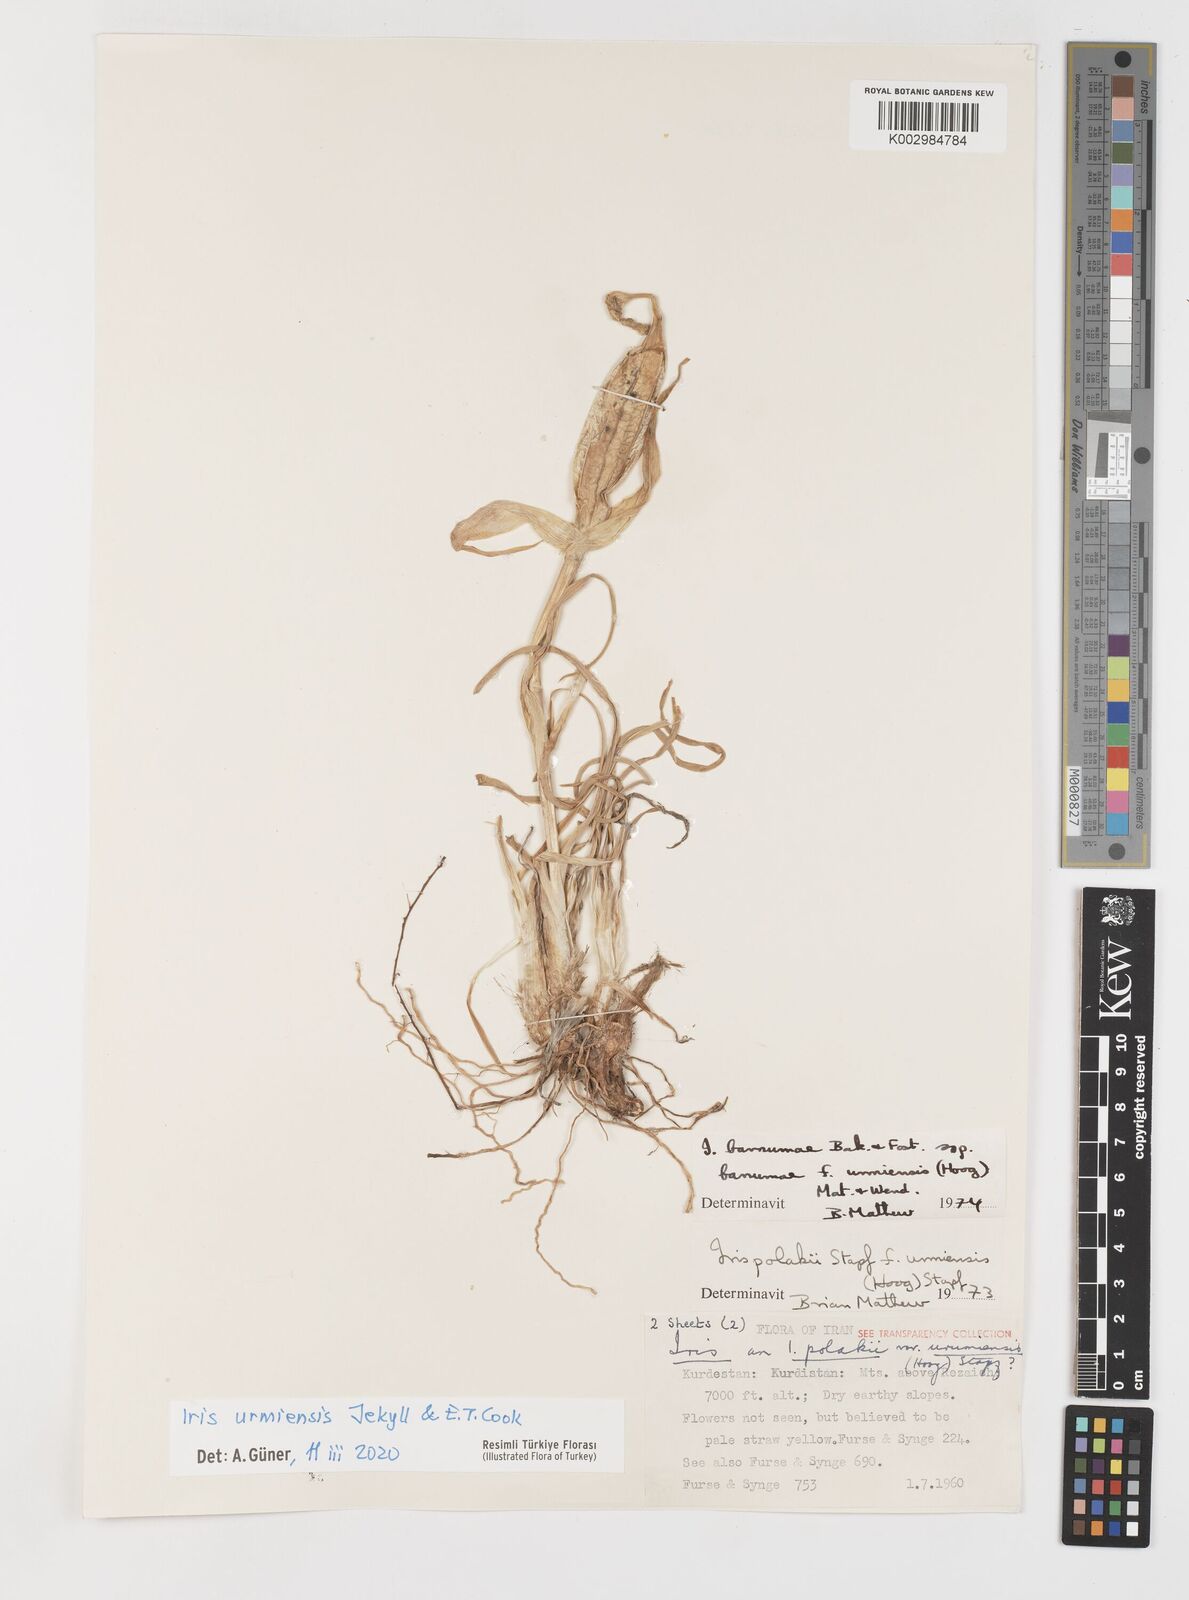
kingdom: Plantae
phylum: Tracheophyta
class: Liliopsida
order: Asparagales
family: Iridaceae
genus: Iris
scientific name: Iris urmiensis
